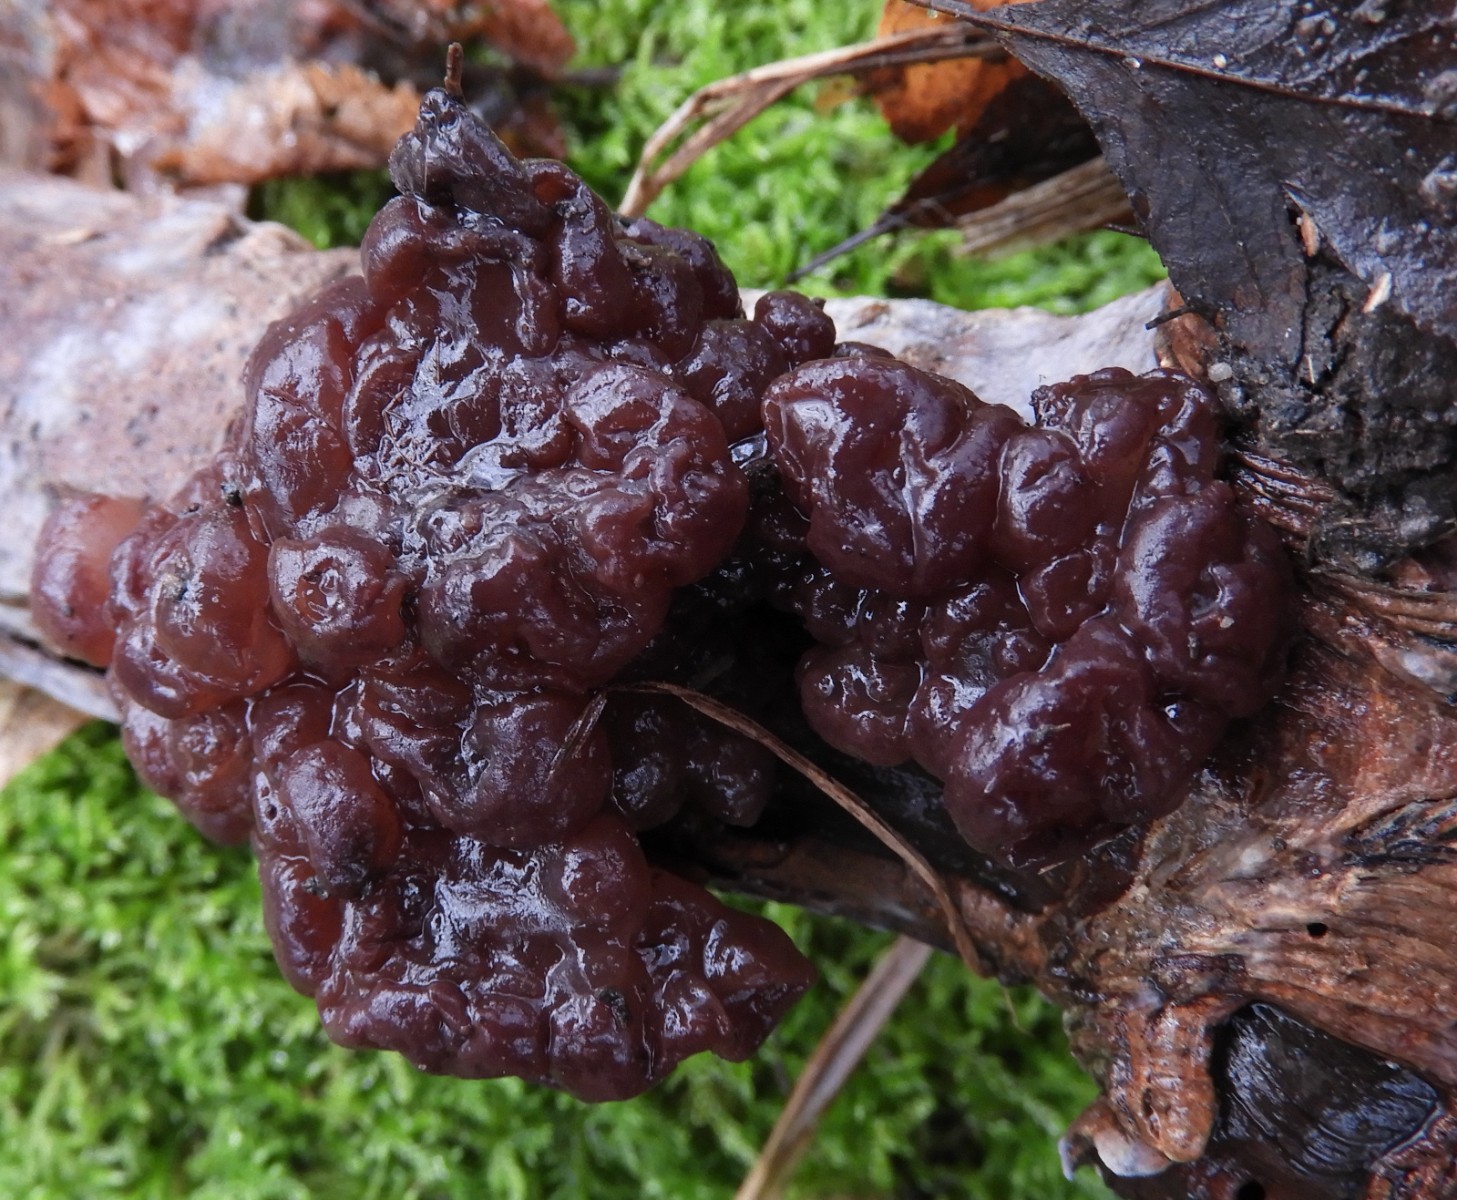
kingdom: Fungi
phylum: Ascomycota
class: Leotiomycetes
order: Helotiales
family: Gelatinodiscaceae
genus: Ascotremella
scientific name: Ascotremella faginea
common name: hjerne-bævreskive
